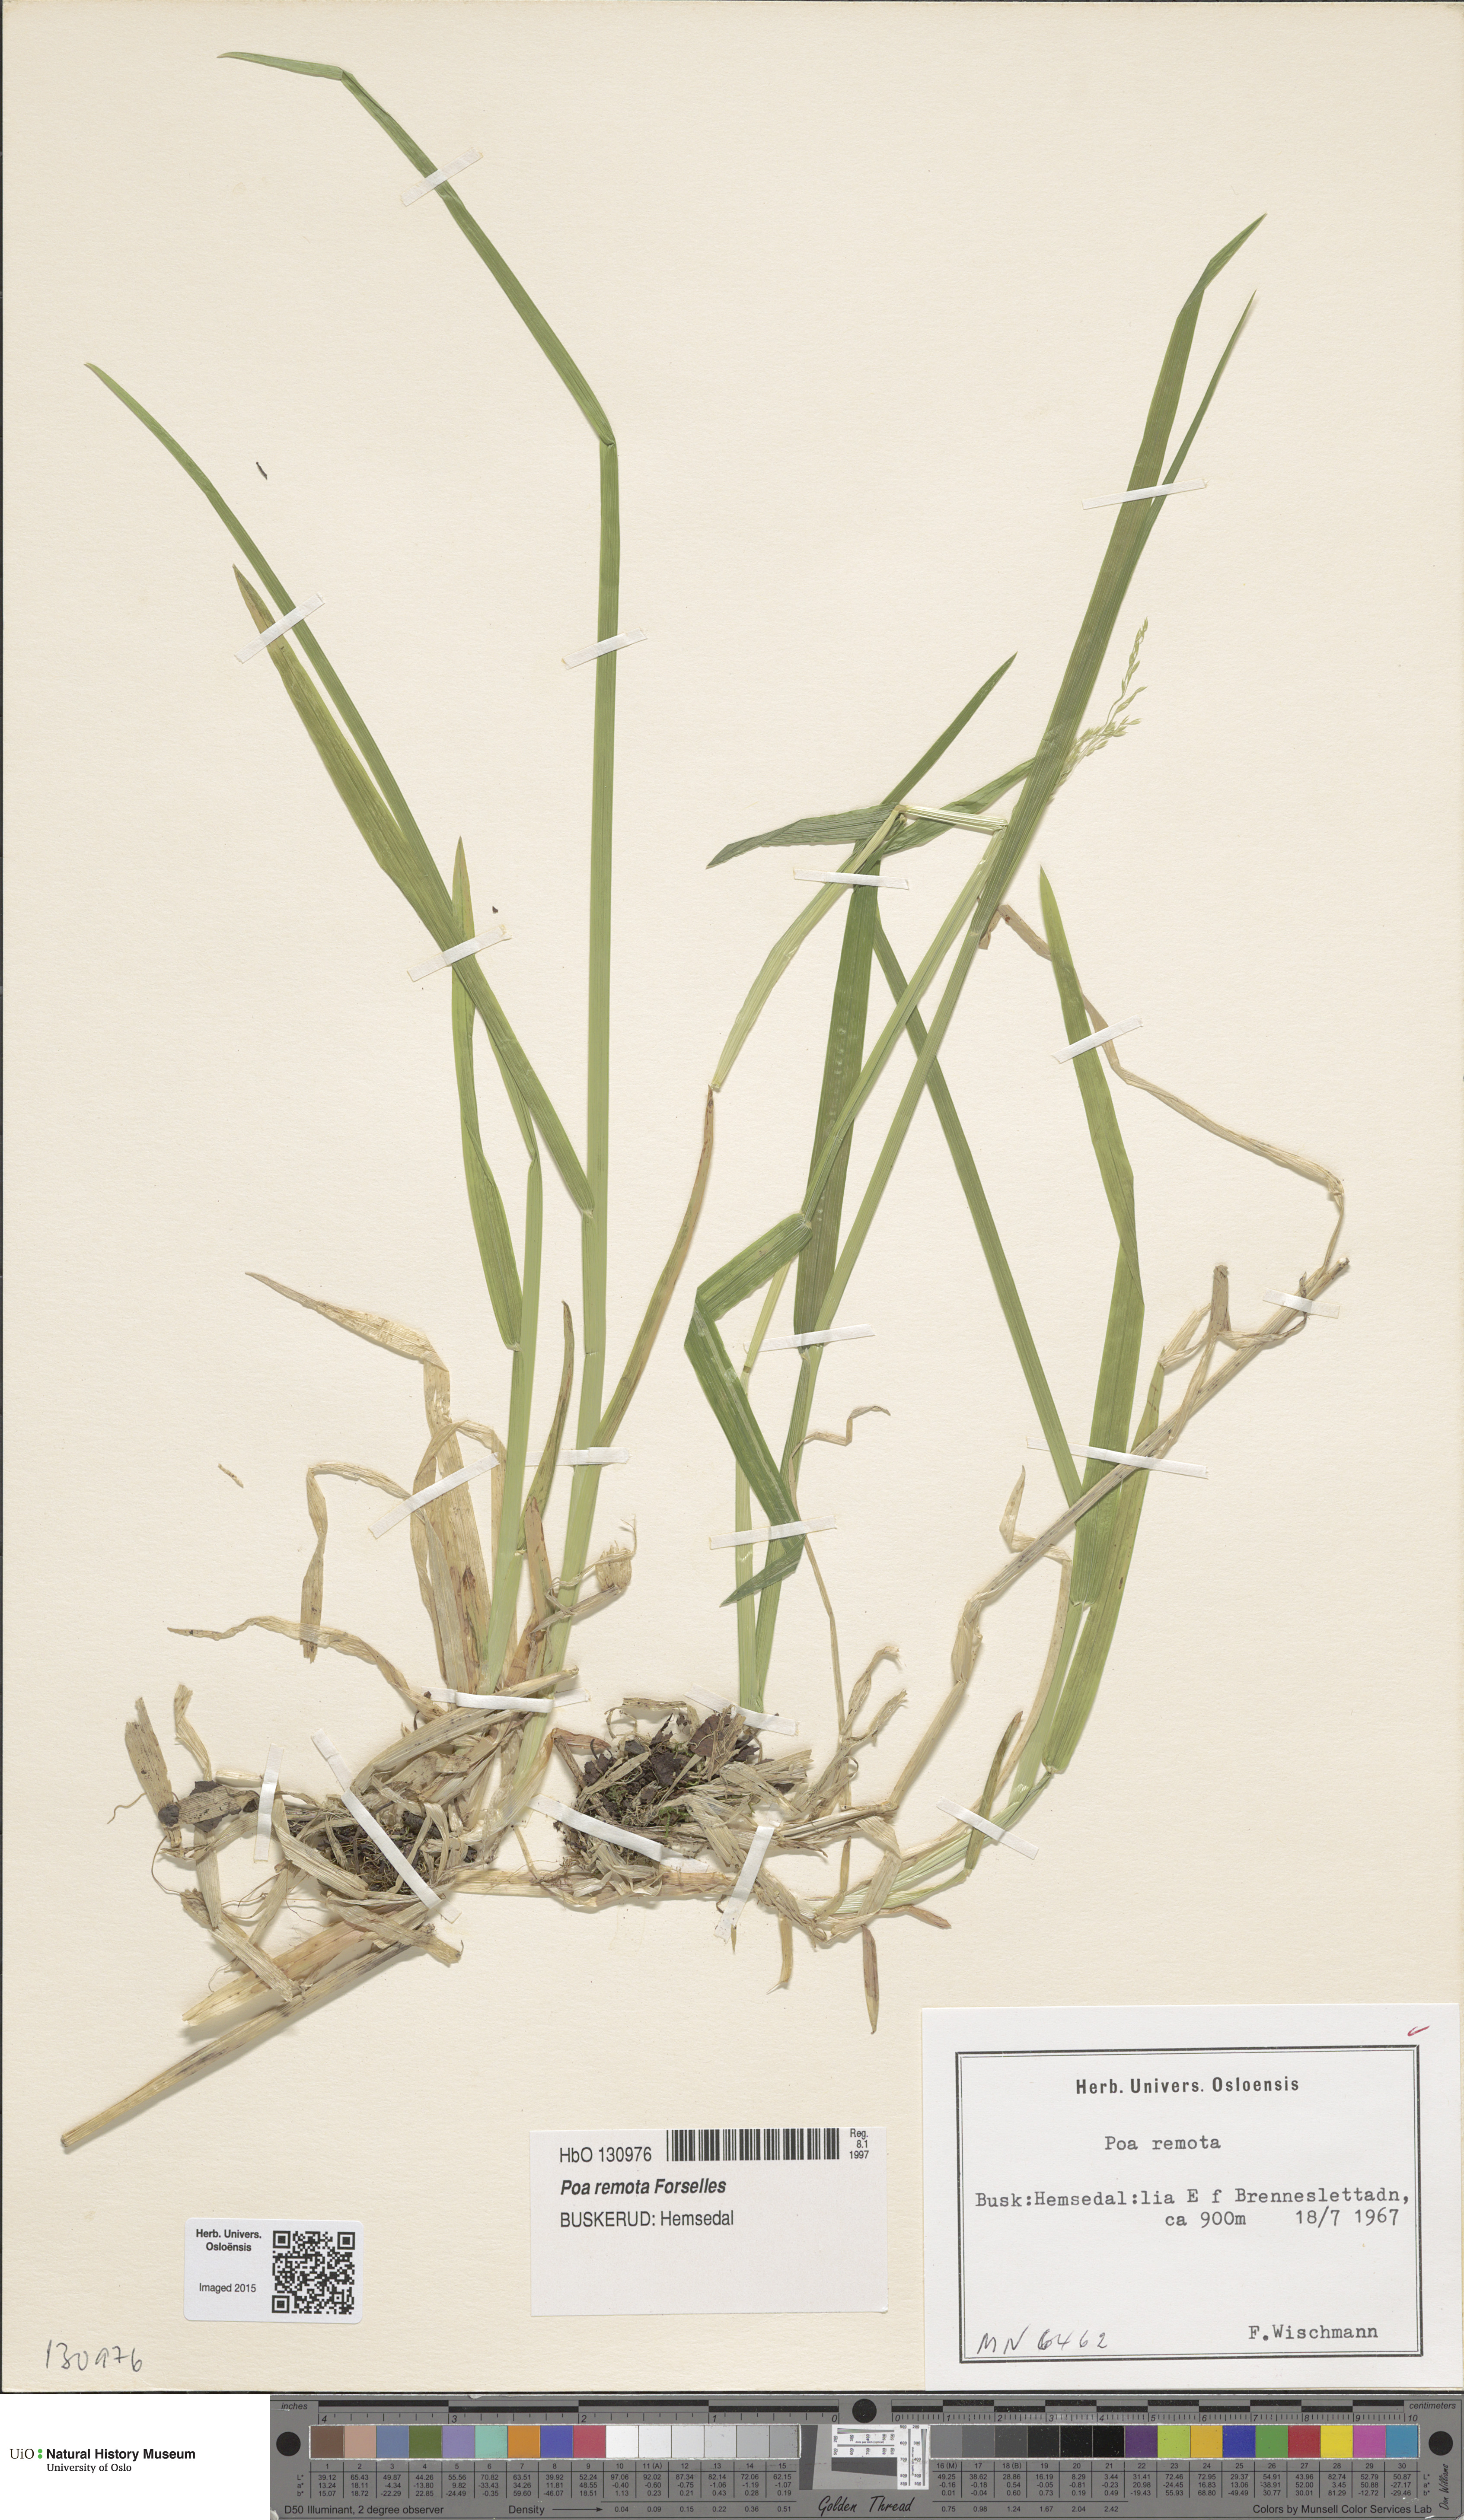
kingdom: Plantae
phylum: Tracheophyta
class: Liliopsida
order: Poales
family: Poaceae
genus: Poa
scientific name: Poa remota
